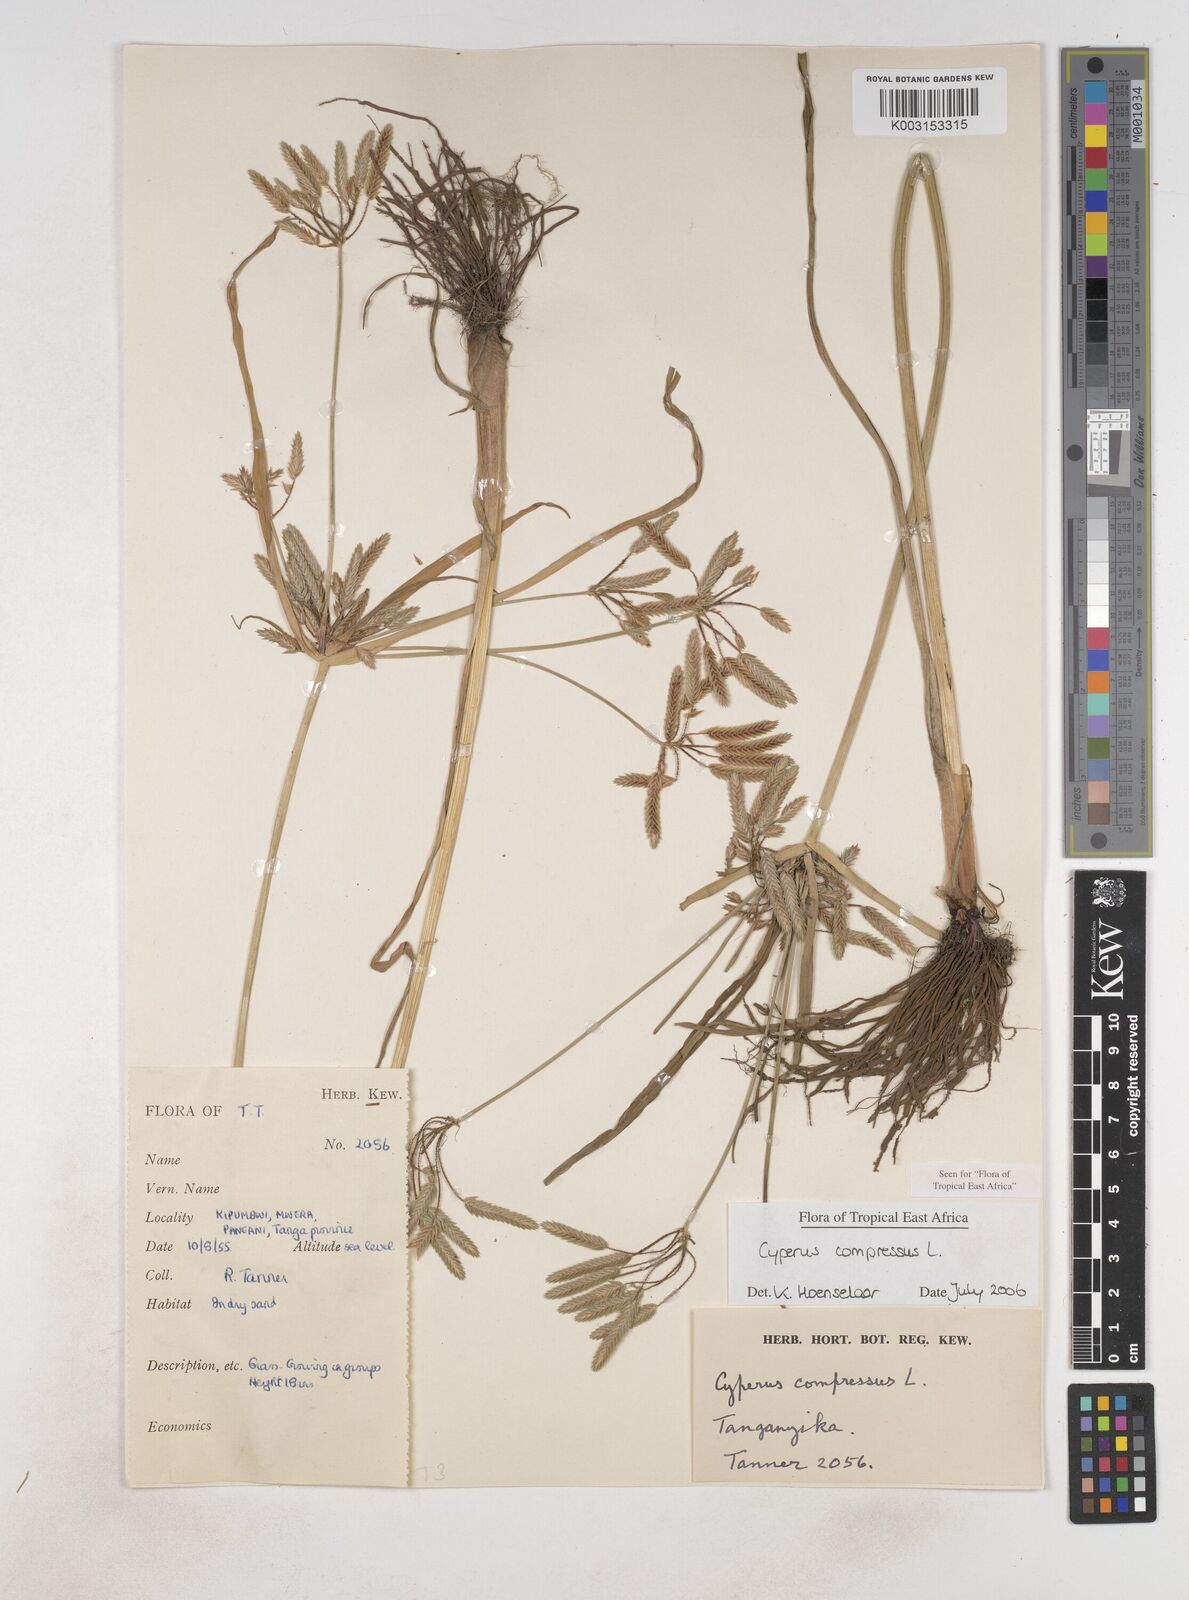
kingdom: Plantae
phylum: Tracheophyta
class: Liliopsida
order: Poales
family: Cyperaceae
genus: Cyperus
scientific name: Cyperus compressus
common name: Poorland flatsedge
